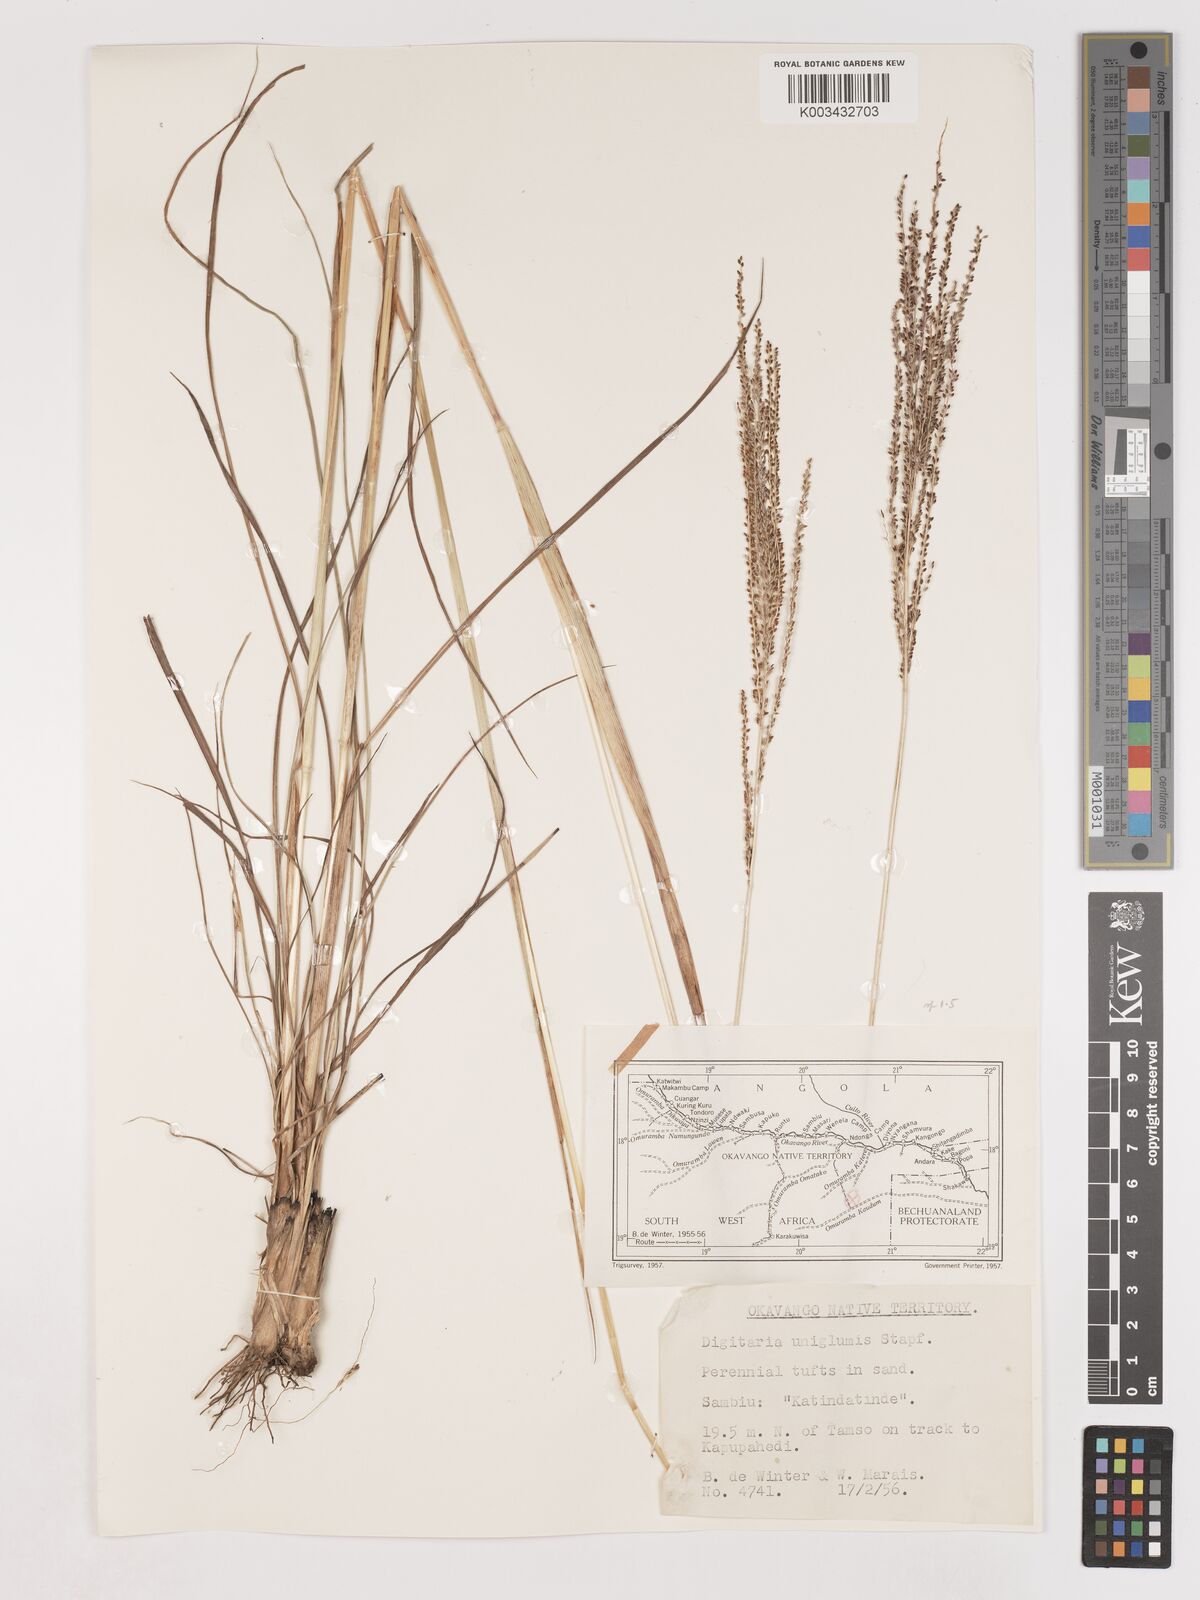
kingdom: Plantae
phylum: Tracheophyta
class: Liliopsida
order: Poales
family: Poaceae
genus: Digitaria
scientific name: Digitaria diagonalis
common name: Brown-seed finger grass
